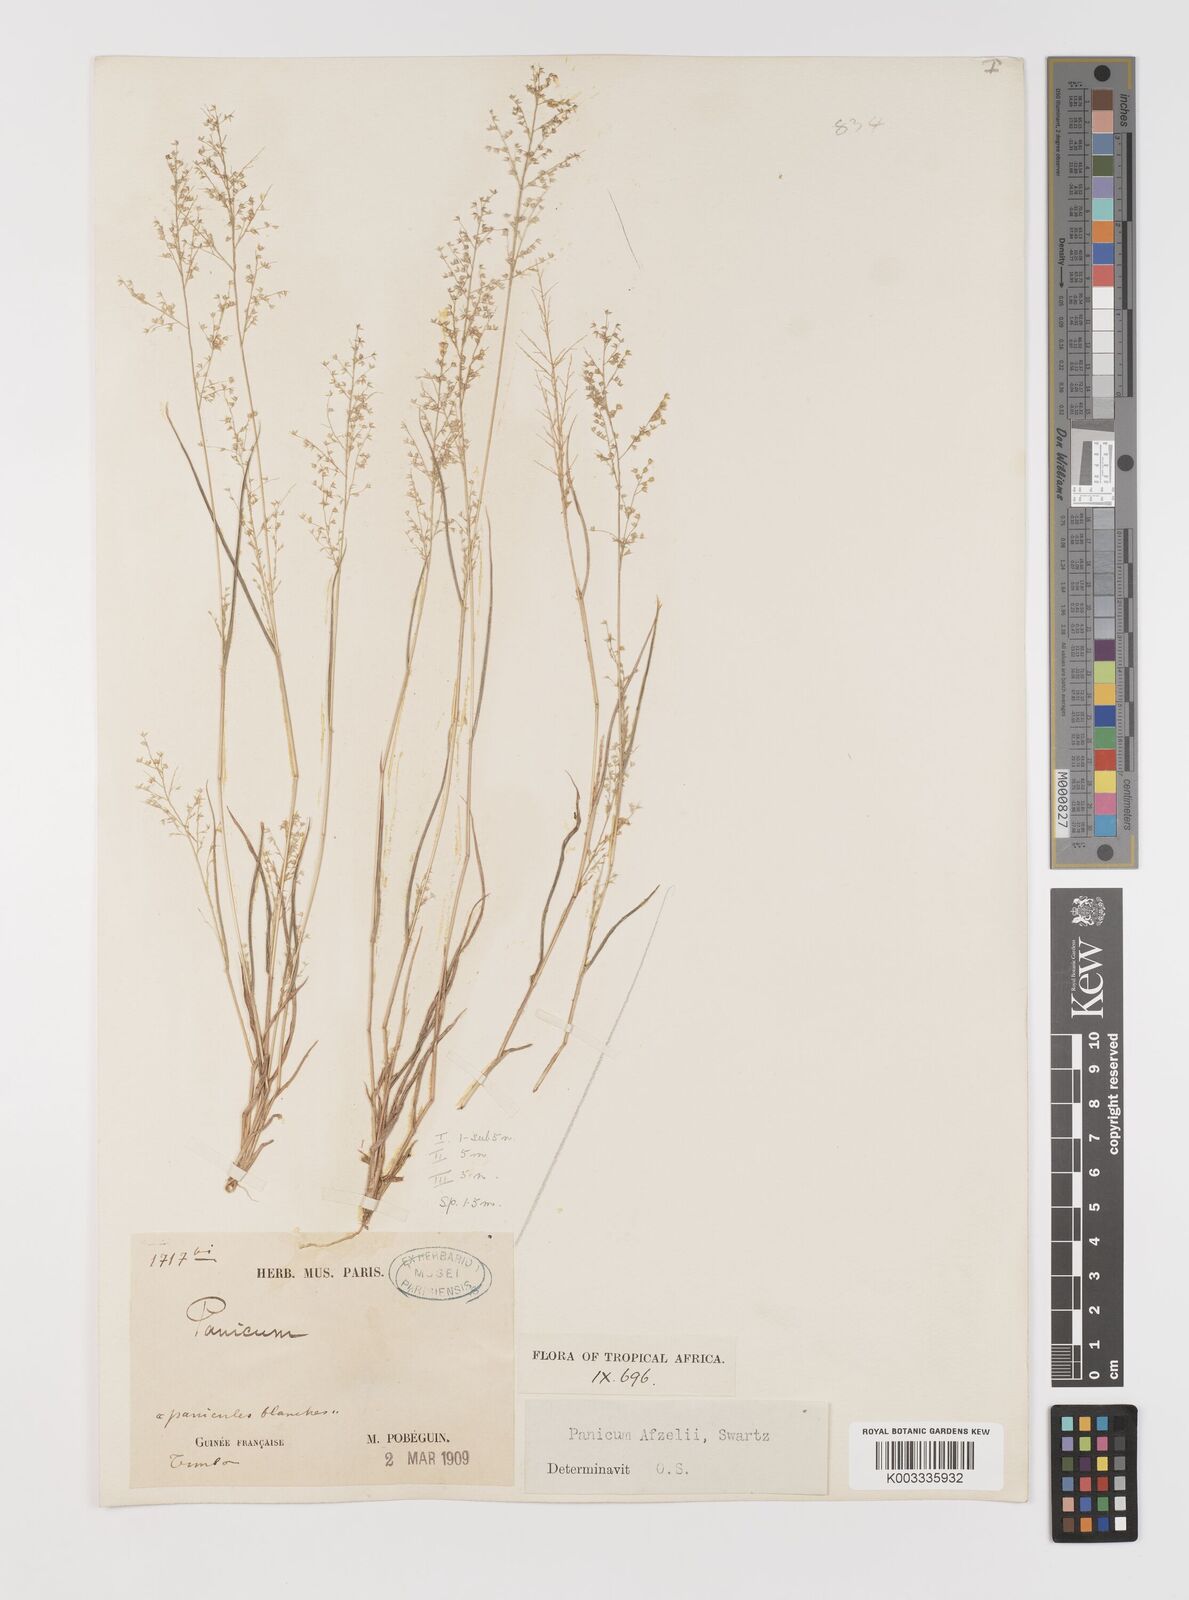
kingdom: Plantae
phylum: Tracheophyta
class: Liliopsida
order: Poales
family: Poaceae
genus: Panicum
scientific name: Panicum afzelii
